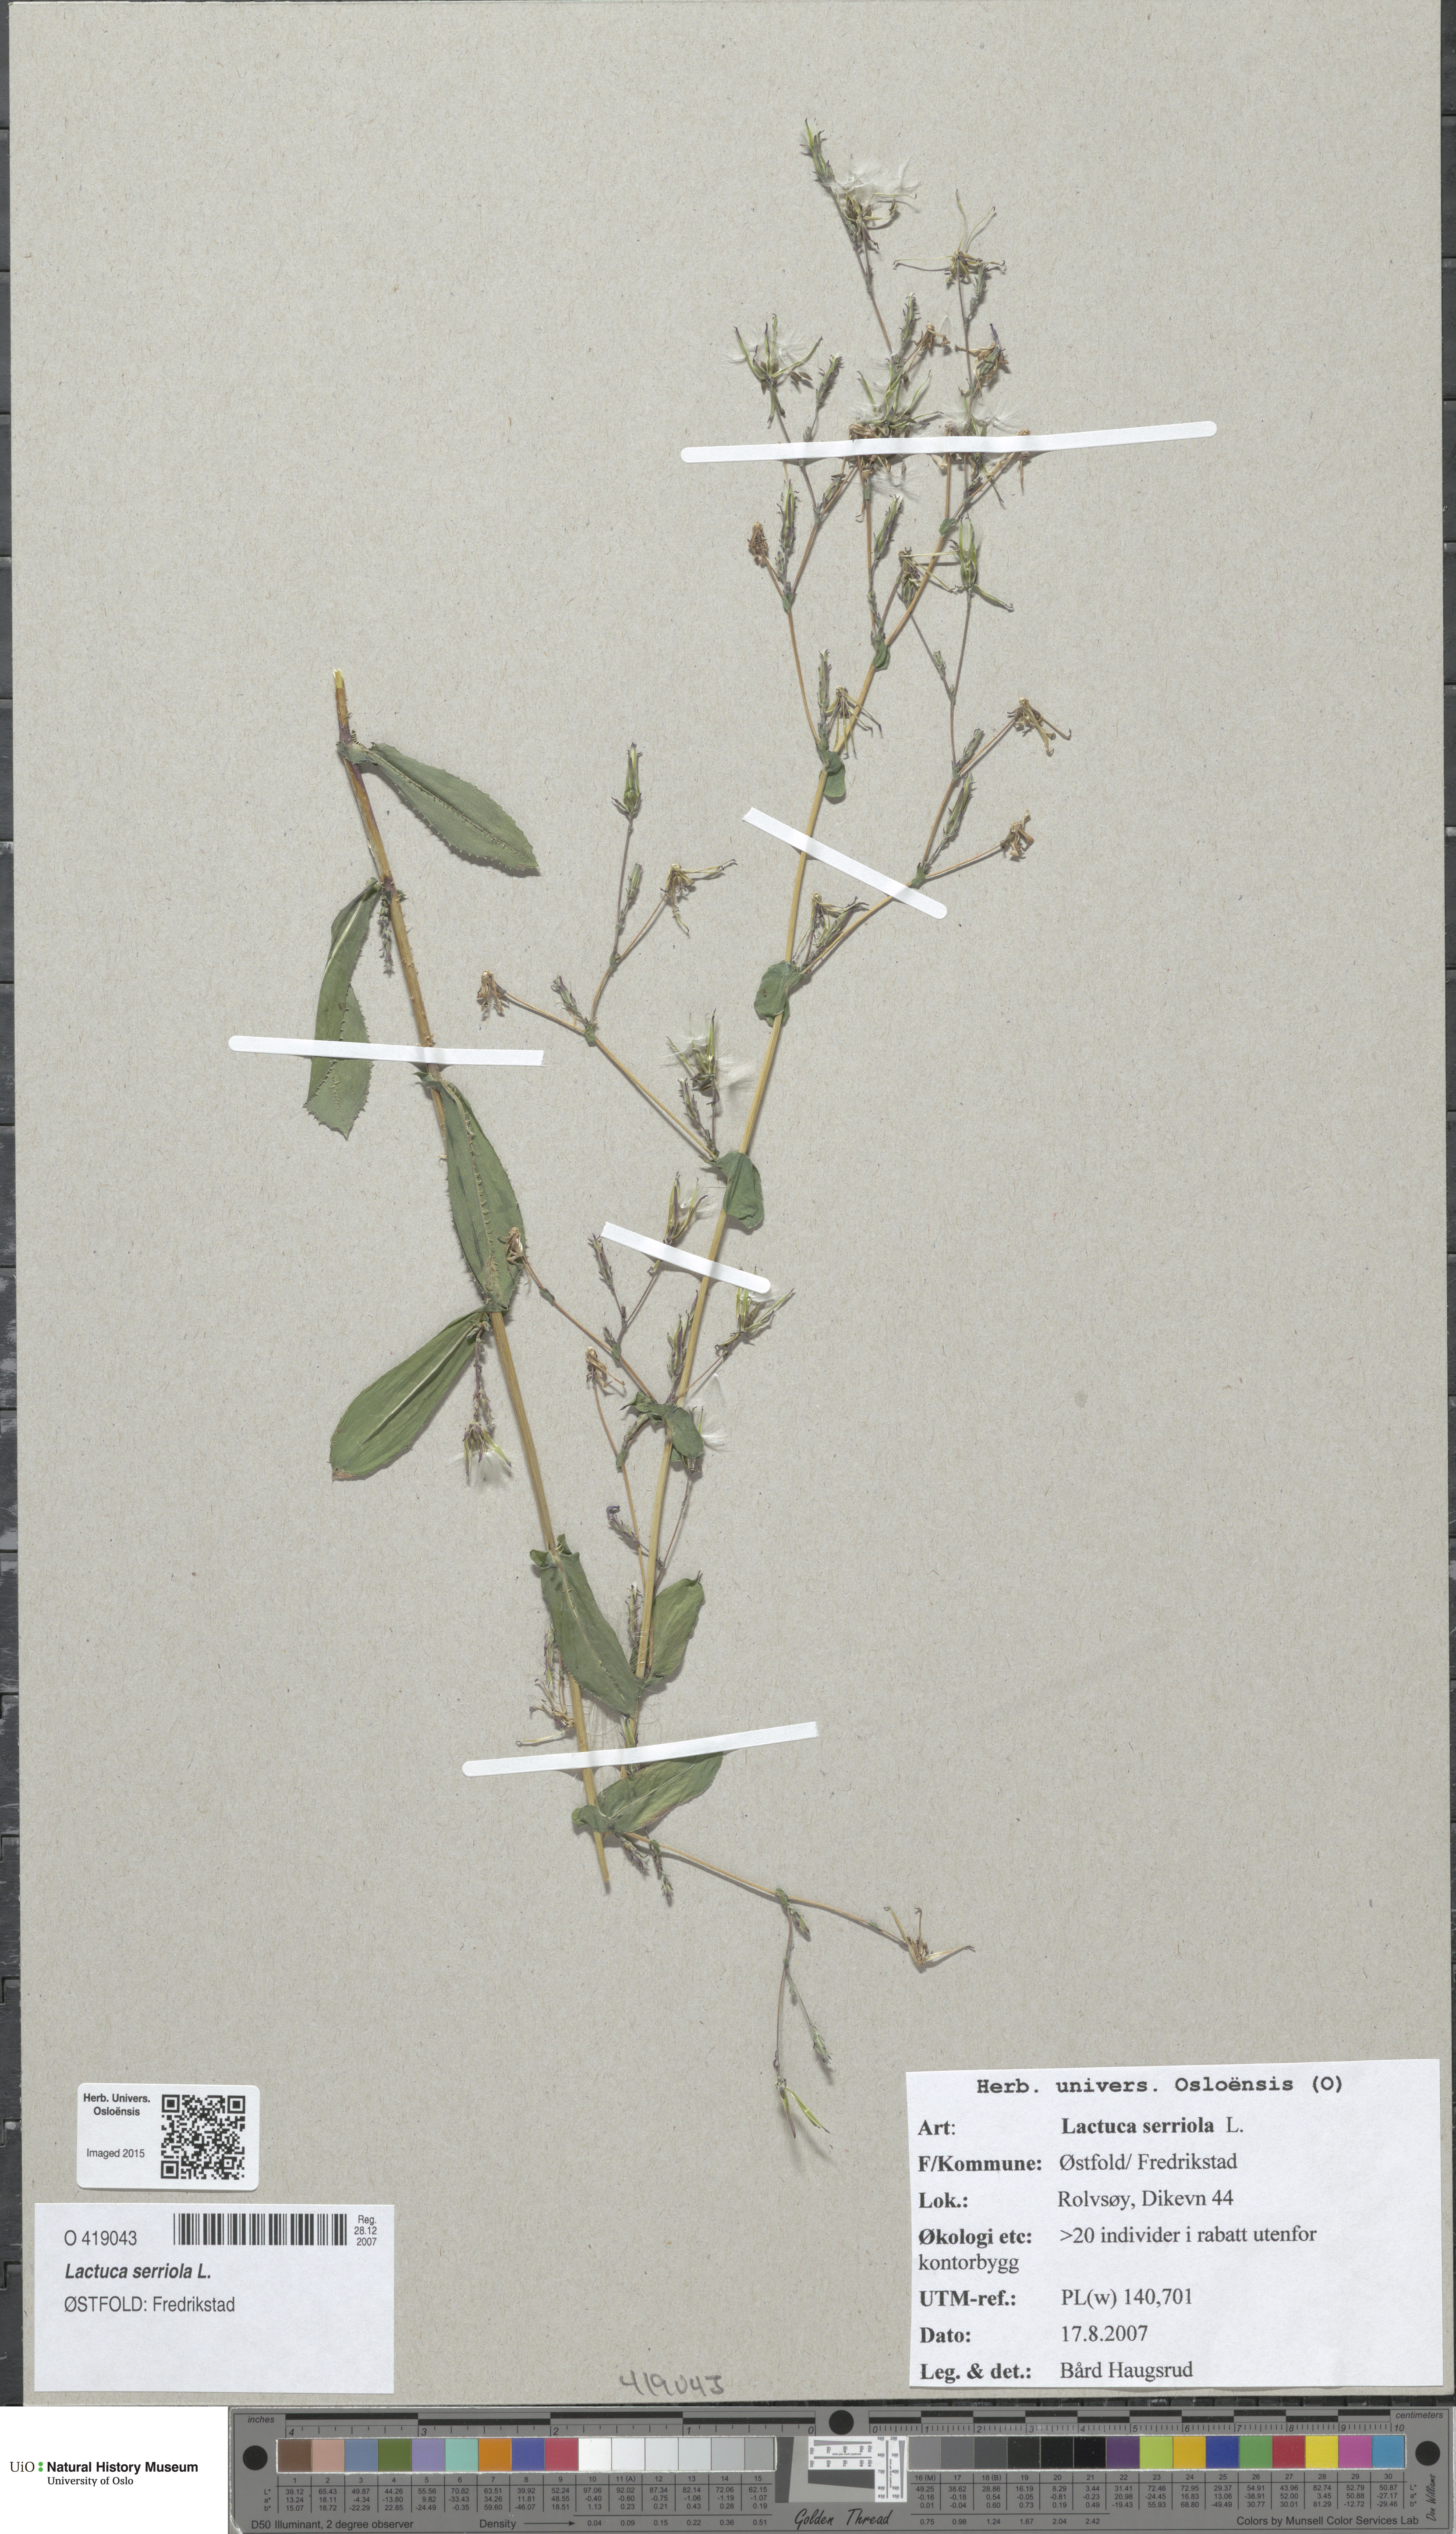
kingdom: Plantae
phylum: Tracheophyta
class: Magnoliopsida
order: Asterales
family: Asteraceae
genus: Lactuca
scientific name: Lactuca serriola
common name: Prickly lettuce
